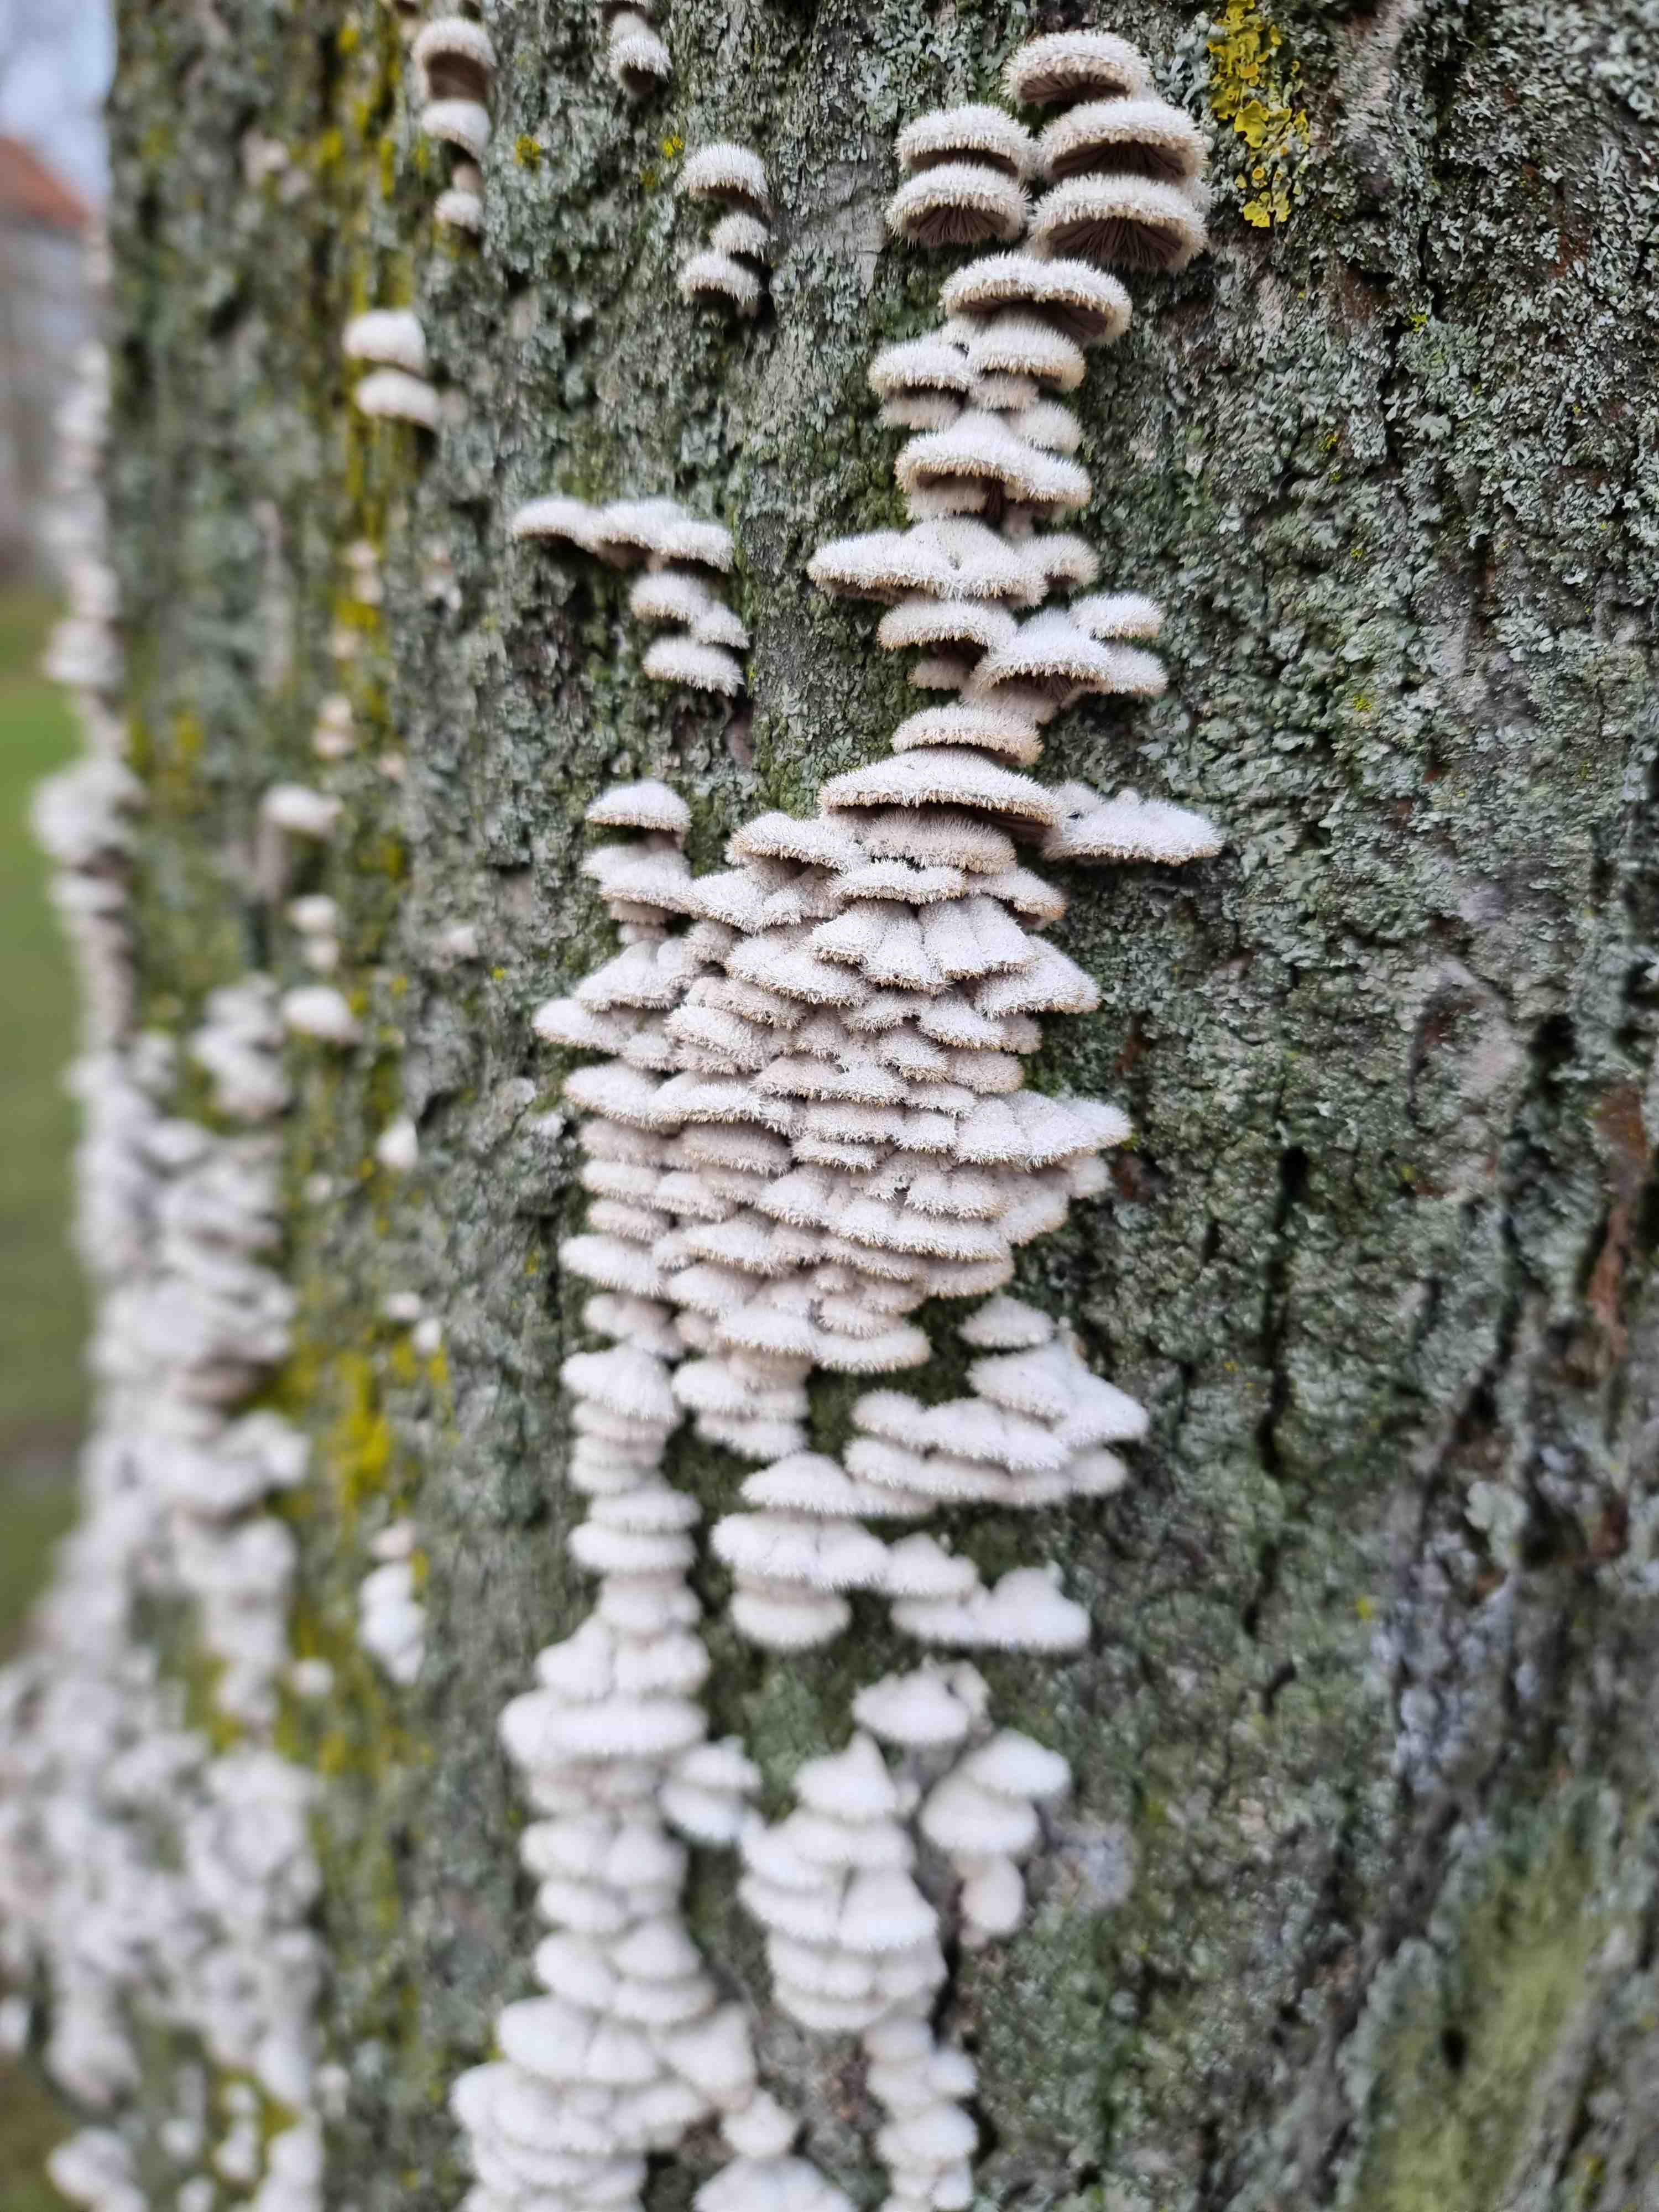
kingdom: Fungi
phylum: Basidiomycota
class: Agaricomycetes
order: Agaricales
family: Schizophyllaceae
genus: Schizophyllum
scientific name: Schizophyllum commune
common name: kløvblad
